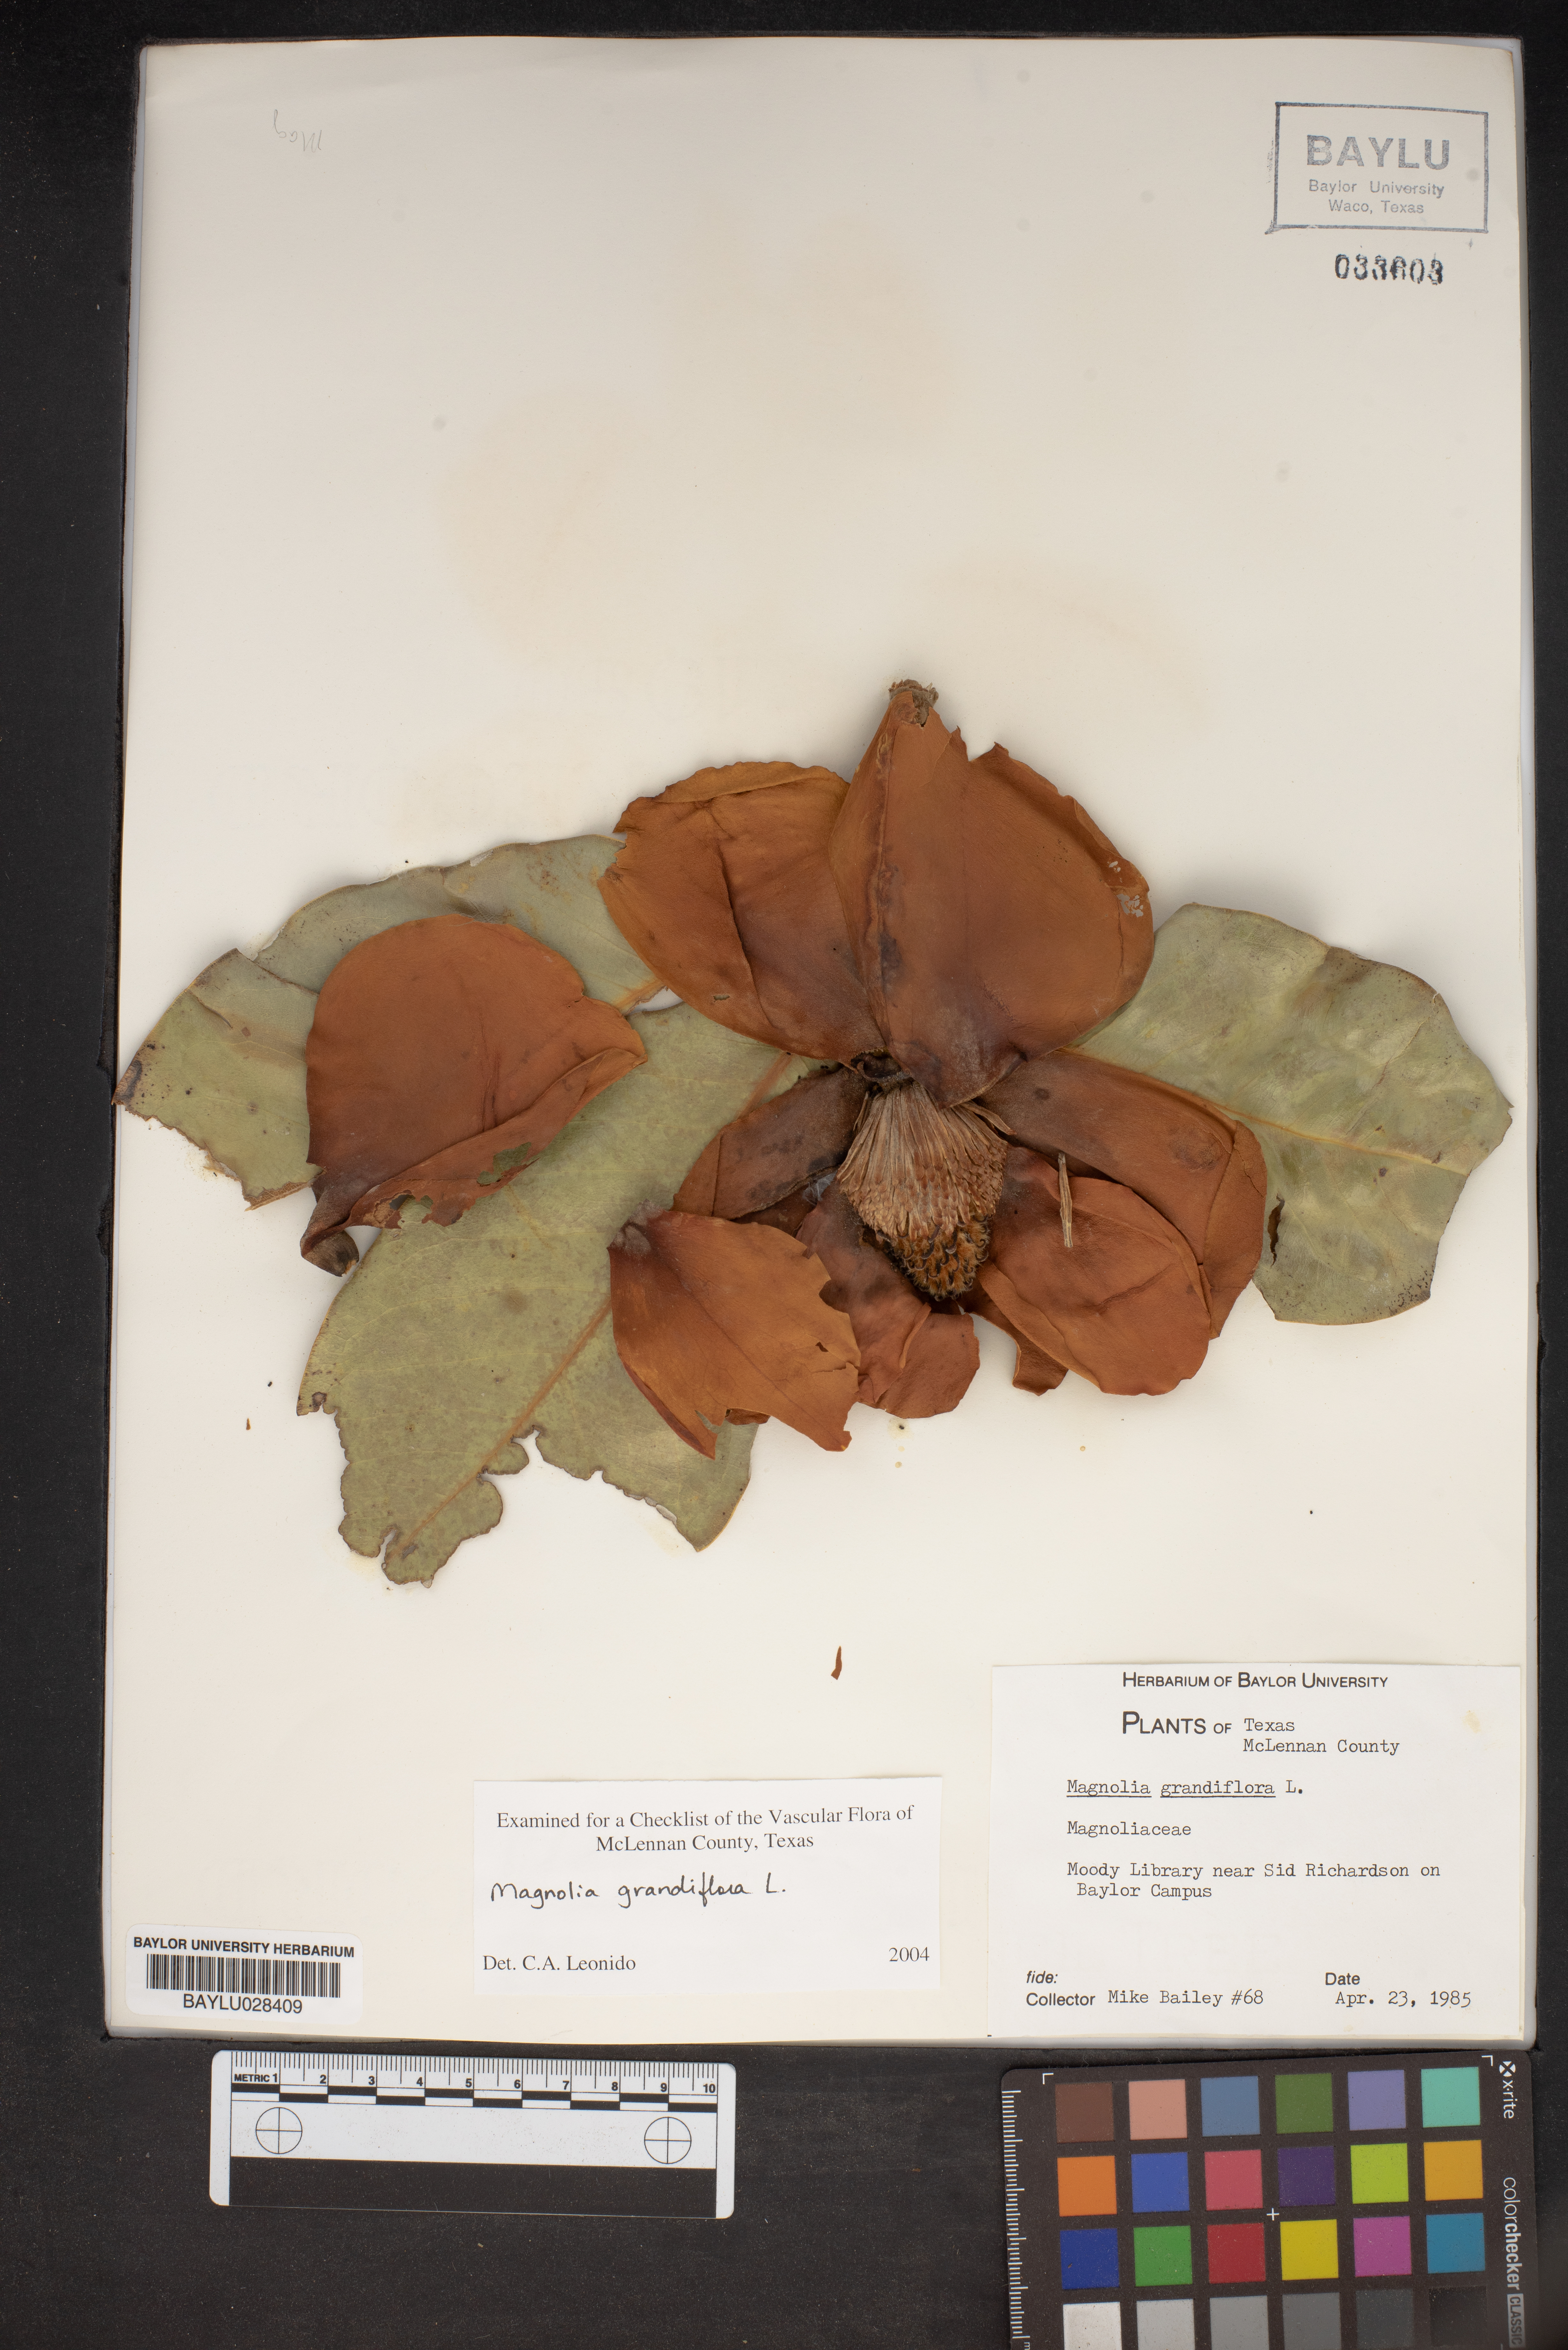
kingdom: Plantae
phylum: Tracheophyta
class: Magnoliopsida
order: Magnoliales
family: Magnoliaceae
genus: Magnolia
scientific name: Magnolia grandiflora
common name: Southern magnolia
